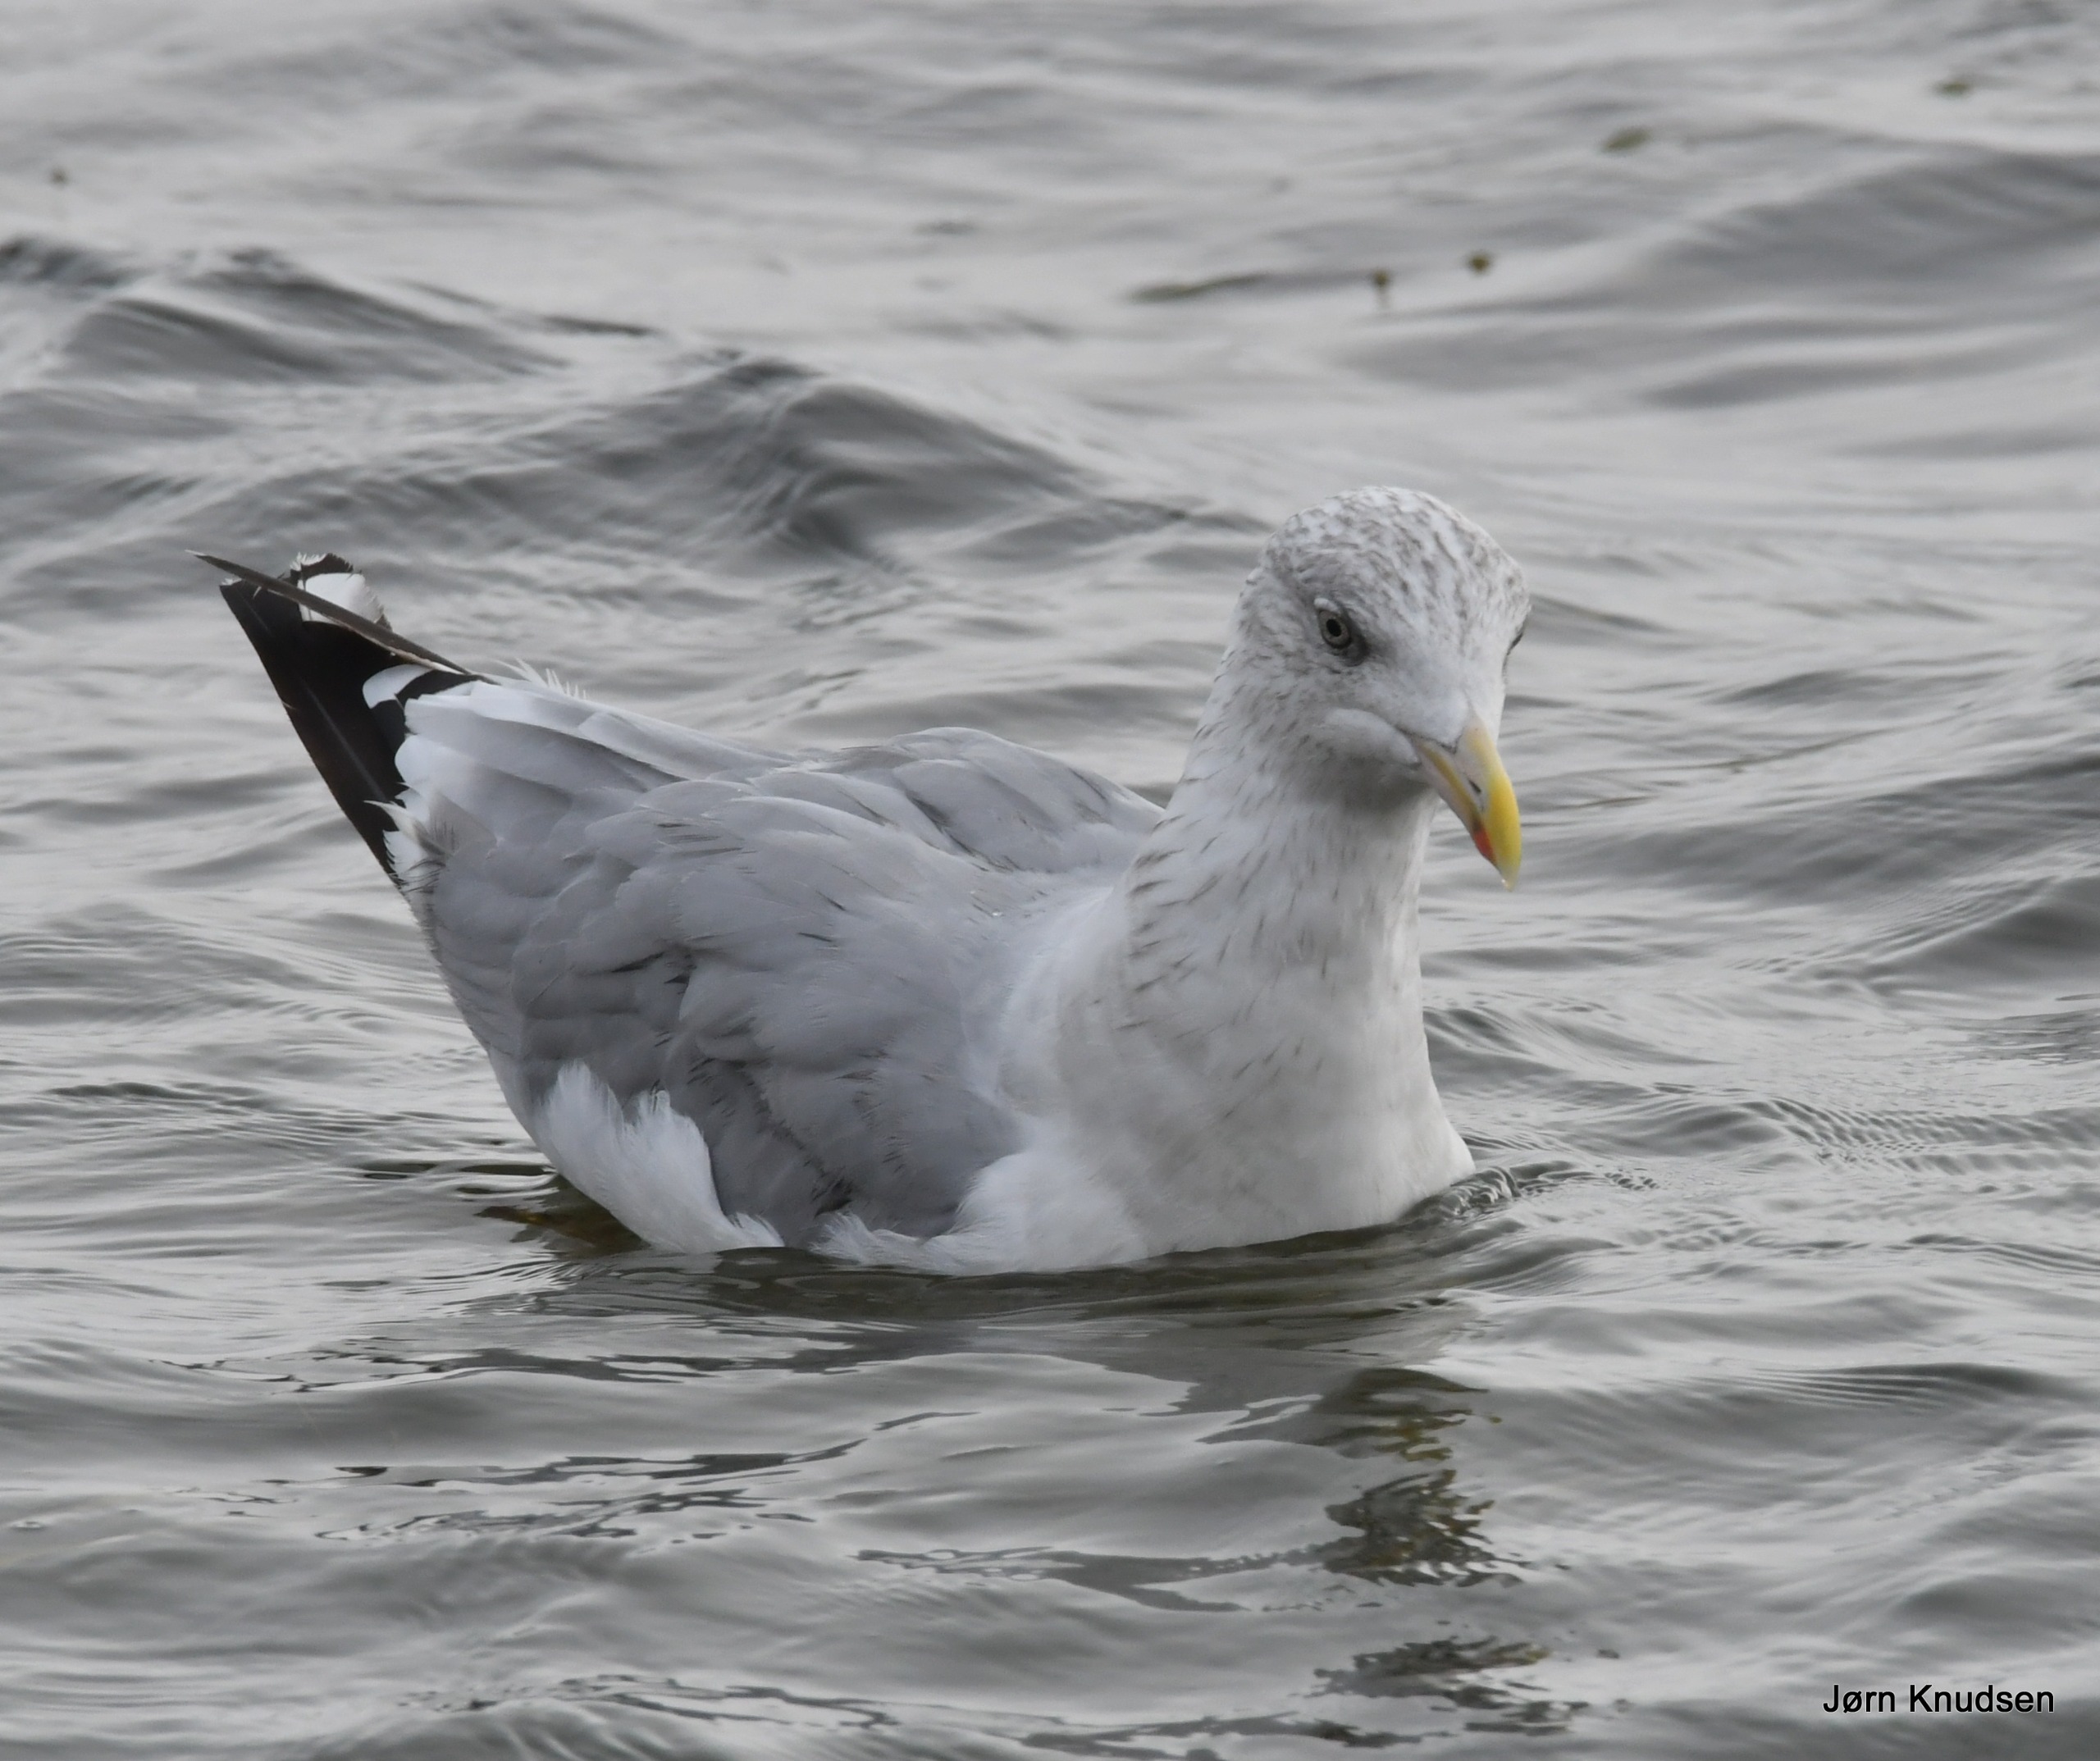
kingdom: Animalia
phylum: Chordata
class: Aves
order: Charadriiformes
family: Laridae
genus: Larus
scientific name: Larus argentatus
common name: Sølvmåge
